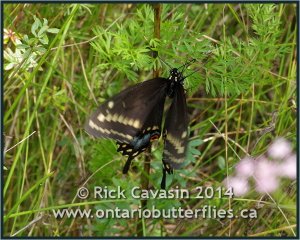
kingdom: Animalia
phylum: Arthropoda
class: Insecta
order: Lepidoptera
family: Papilionidae
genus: Papilio
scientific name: Papilio polyxenes
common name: Black Swallowtail
